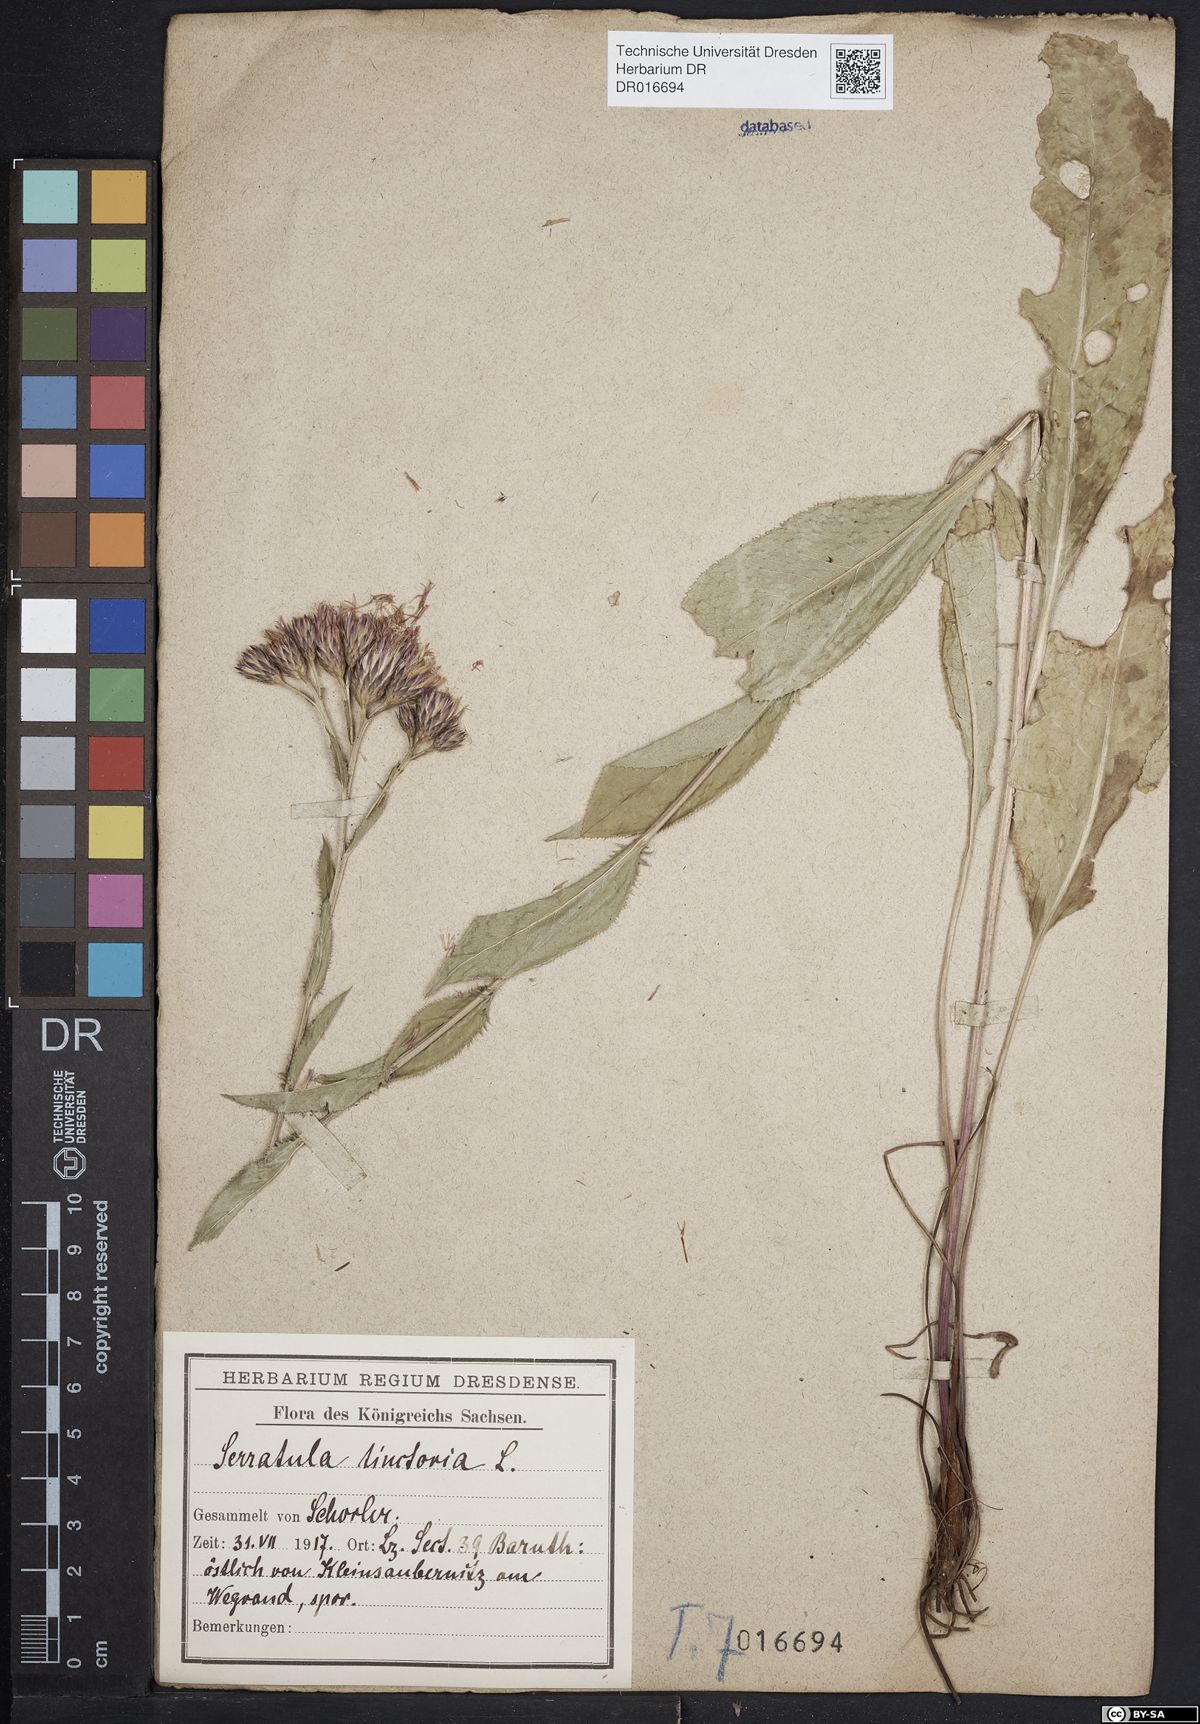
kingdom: Plantae
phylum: Tracheophyta
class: Magnoliopsida
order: Asterales
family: Asteraceae
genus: Serratula
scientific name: Serratula tinctoria
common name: Saw-wort
